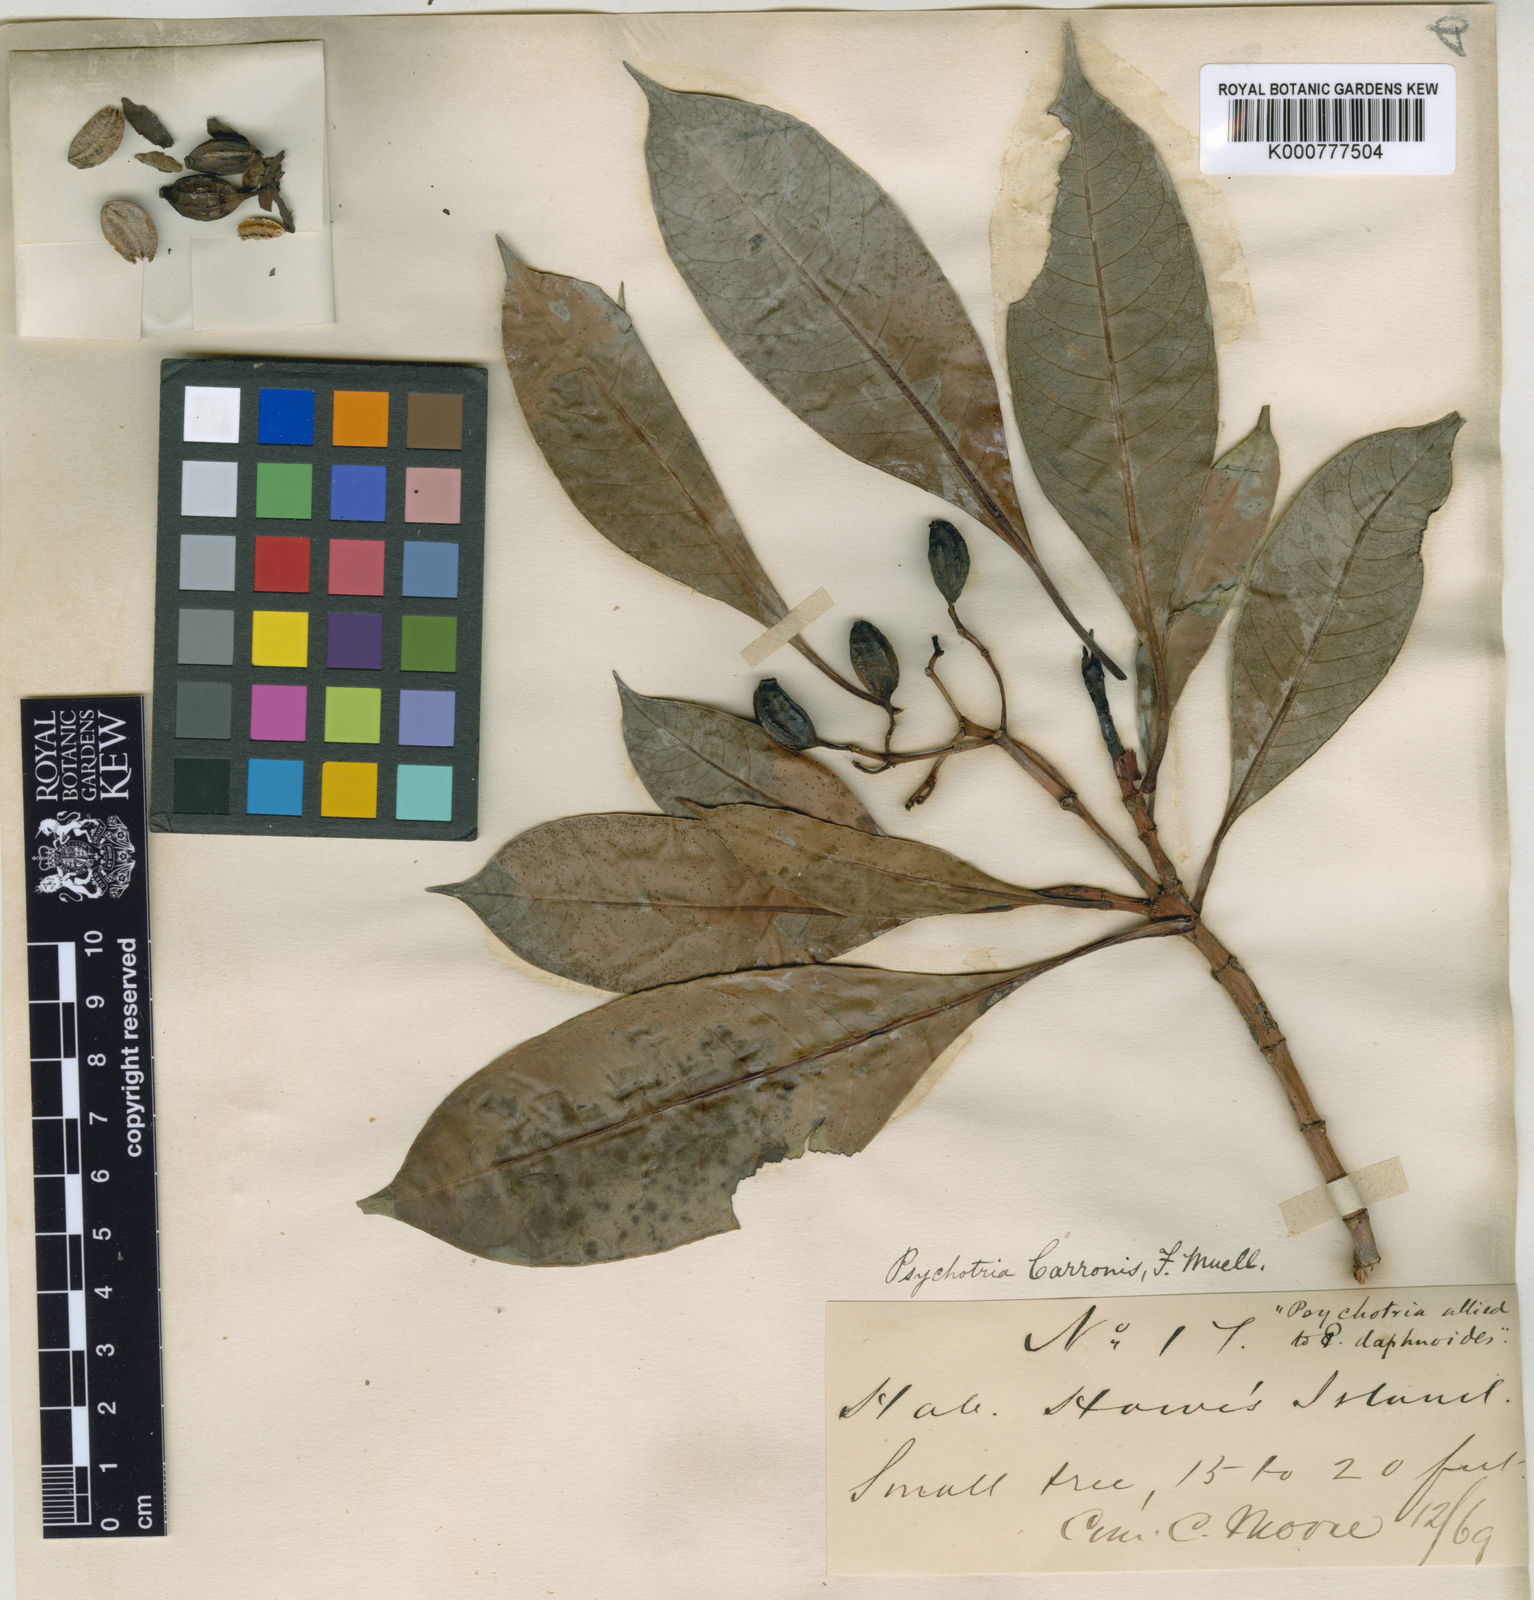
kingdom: Plantae
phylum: Tracheophyta
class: Magnoliopsida
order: Gentianales
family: Rubiaceae
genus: Psychotria
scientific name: Psychotria carronis
